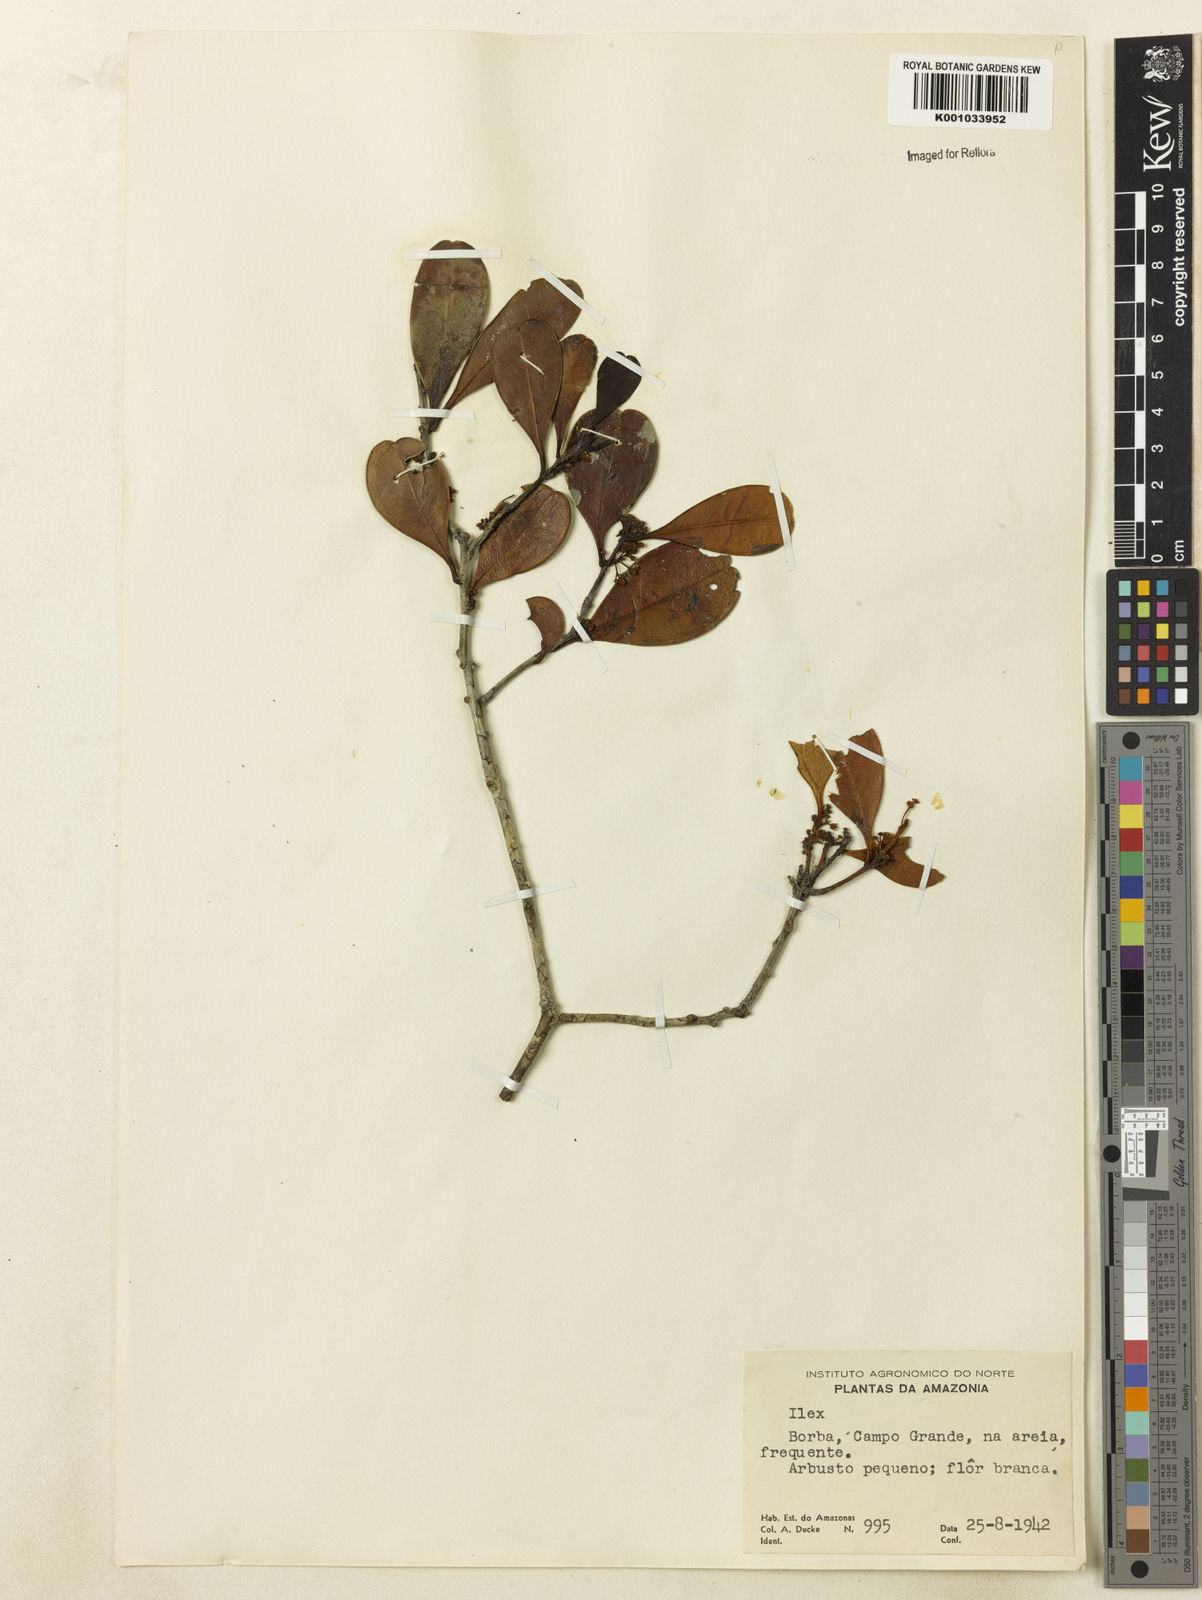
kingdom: Plantae
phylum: Tracheophyta
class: Magnoliopsida
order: Aquifoliales
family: Aquifoliaceae
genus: Ilex
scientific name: Ilex divaricata
